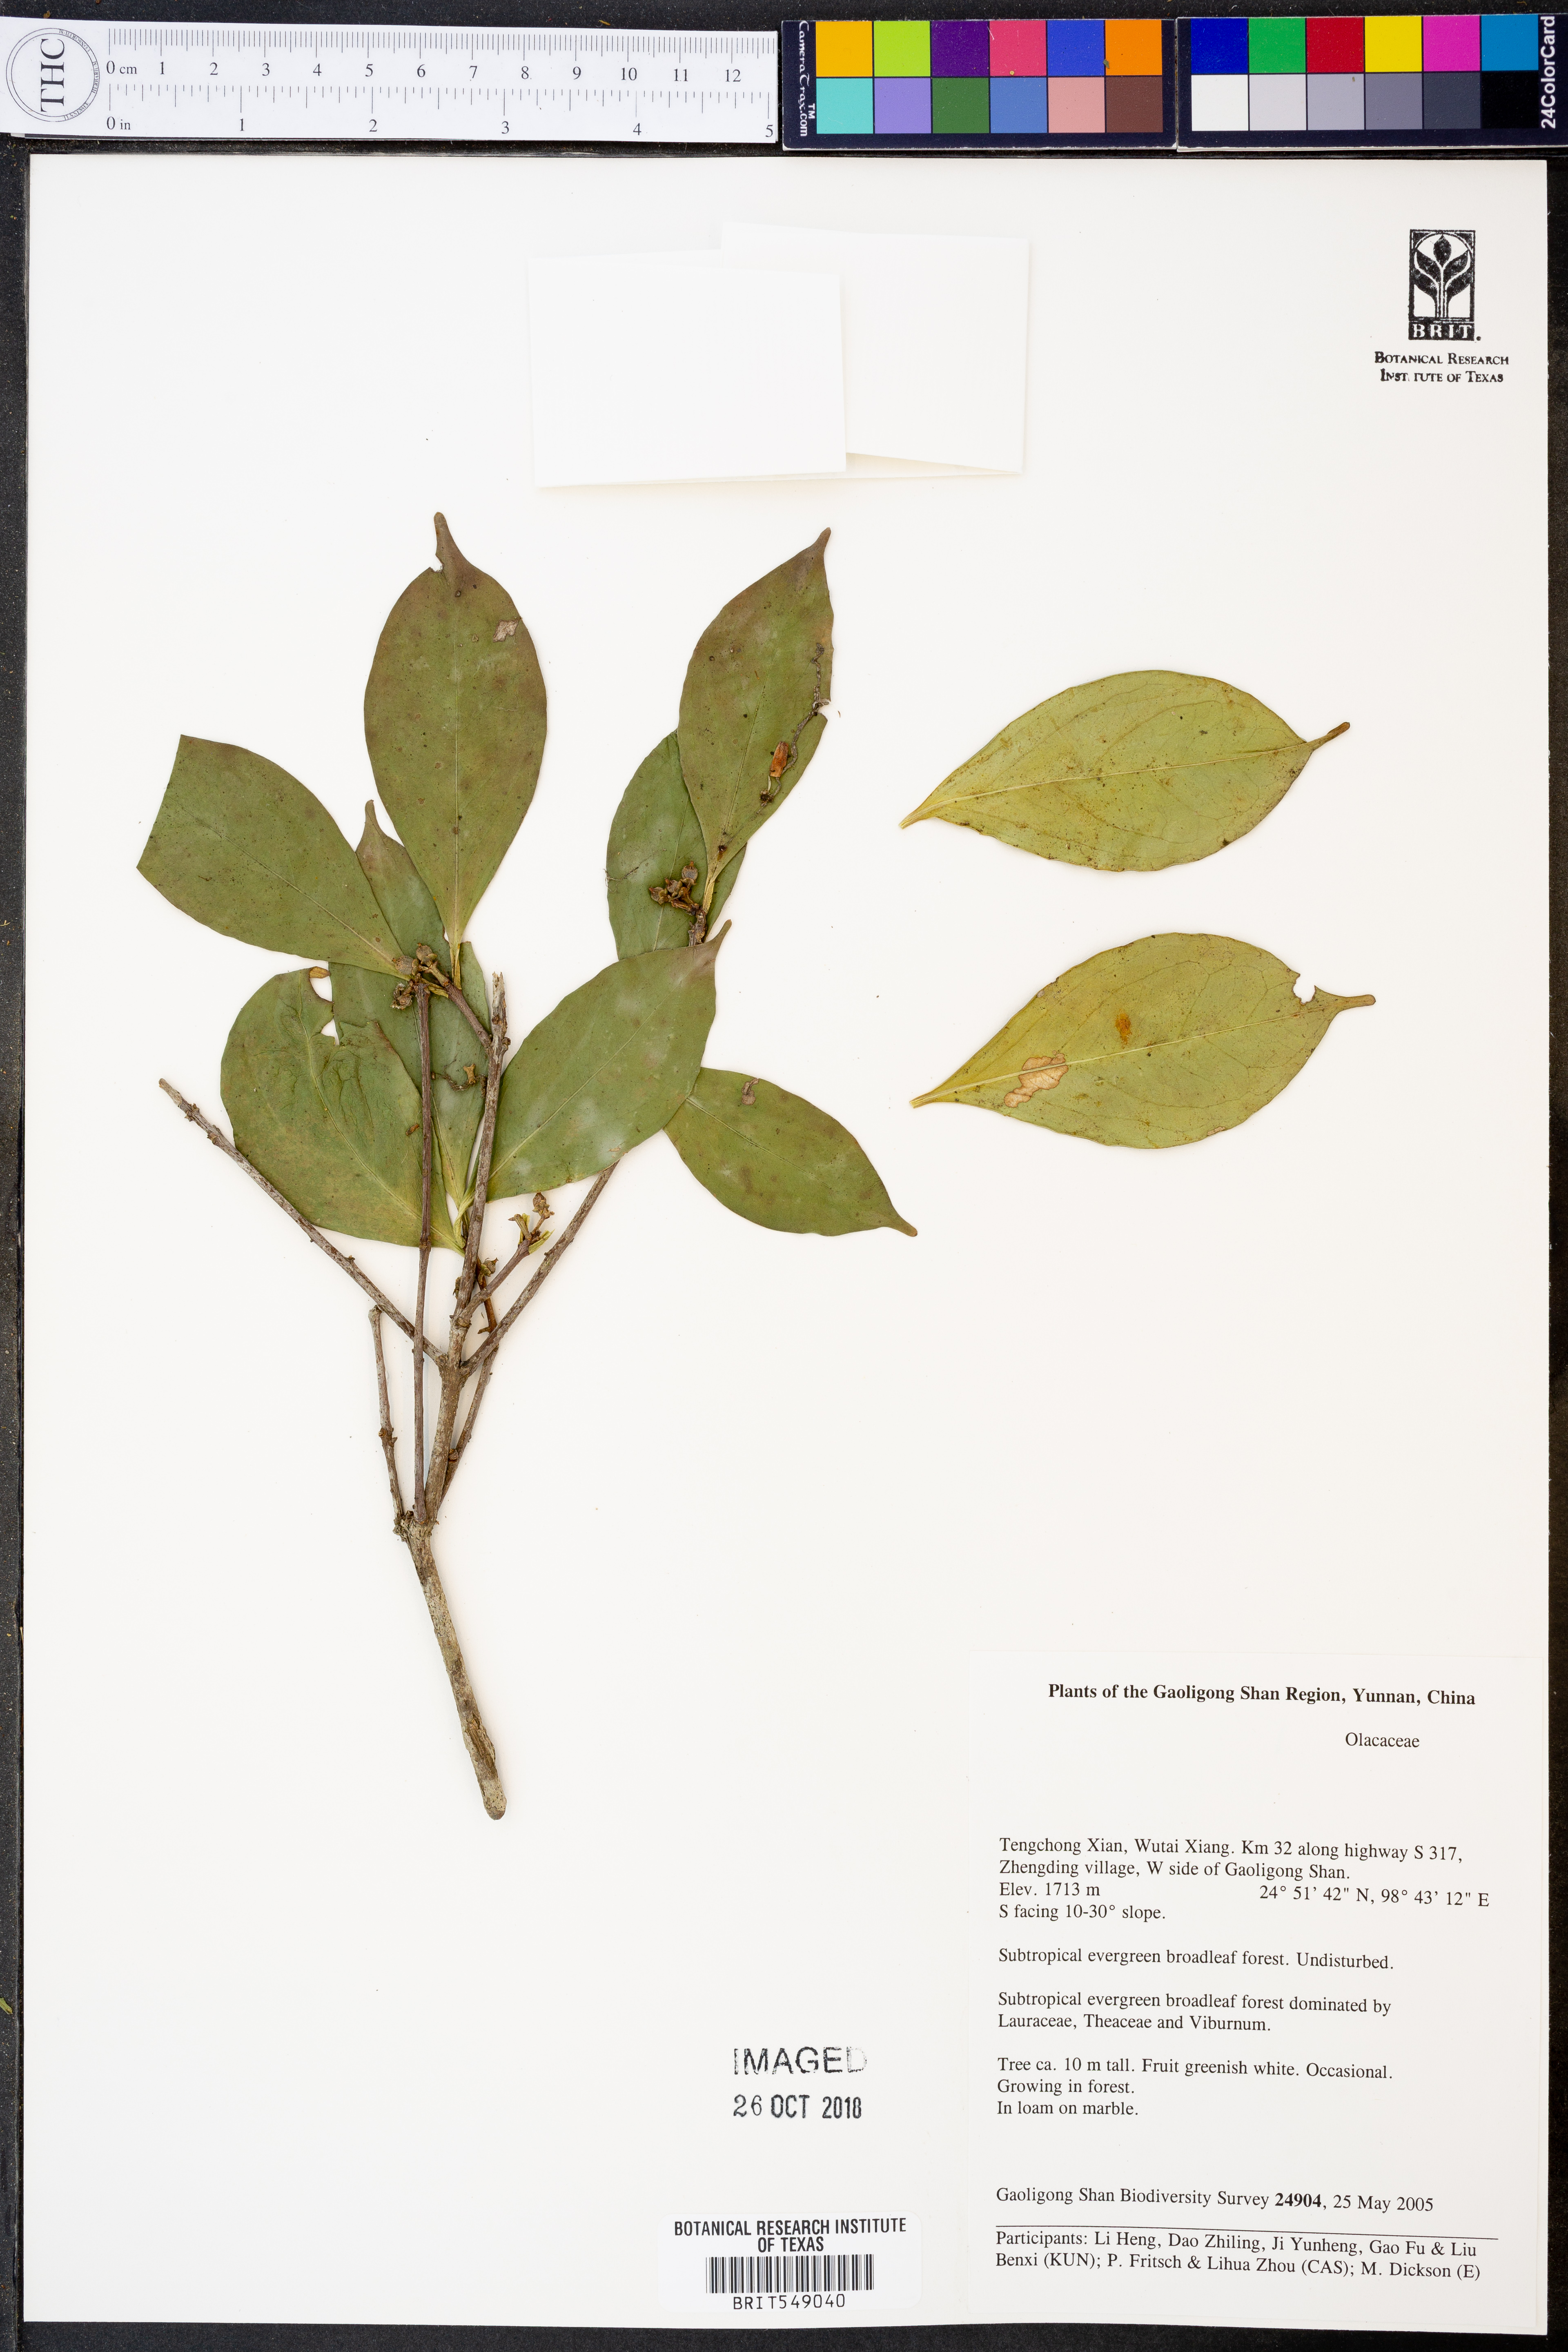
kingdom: Plantae
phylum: Tracheophyta
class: Magnoliopsida
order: Santalales
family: Olacaceae
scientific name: Olacaceae
